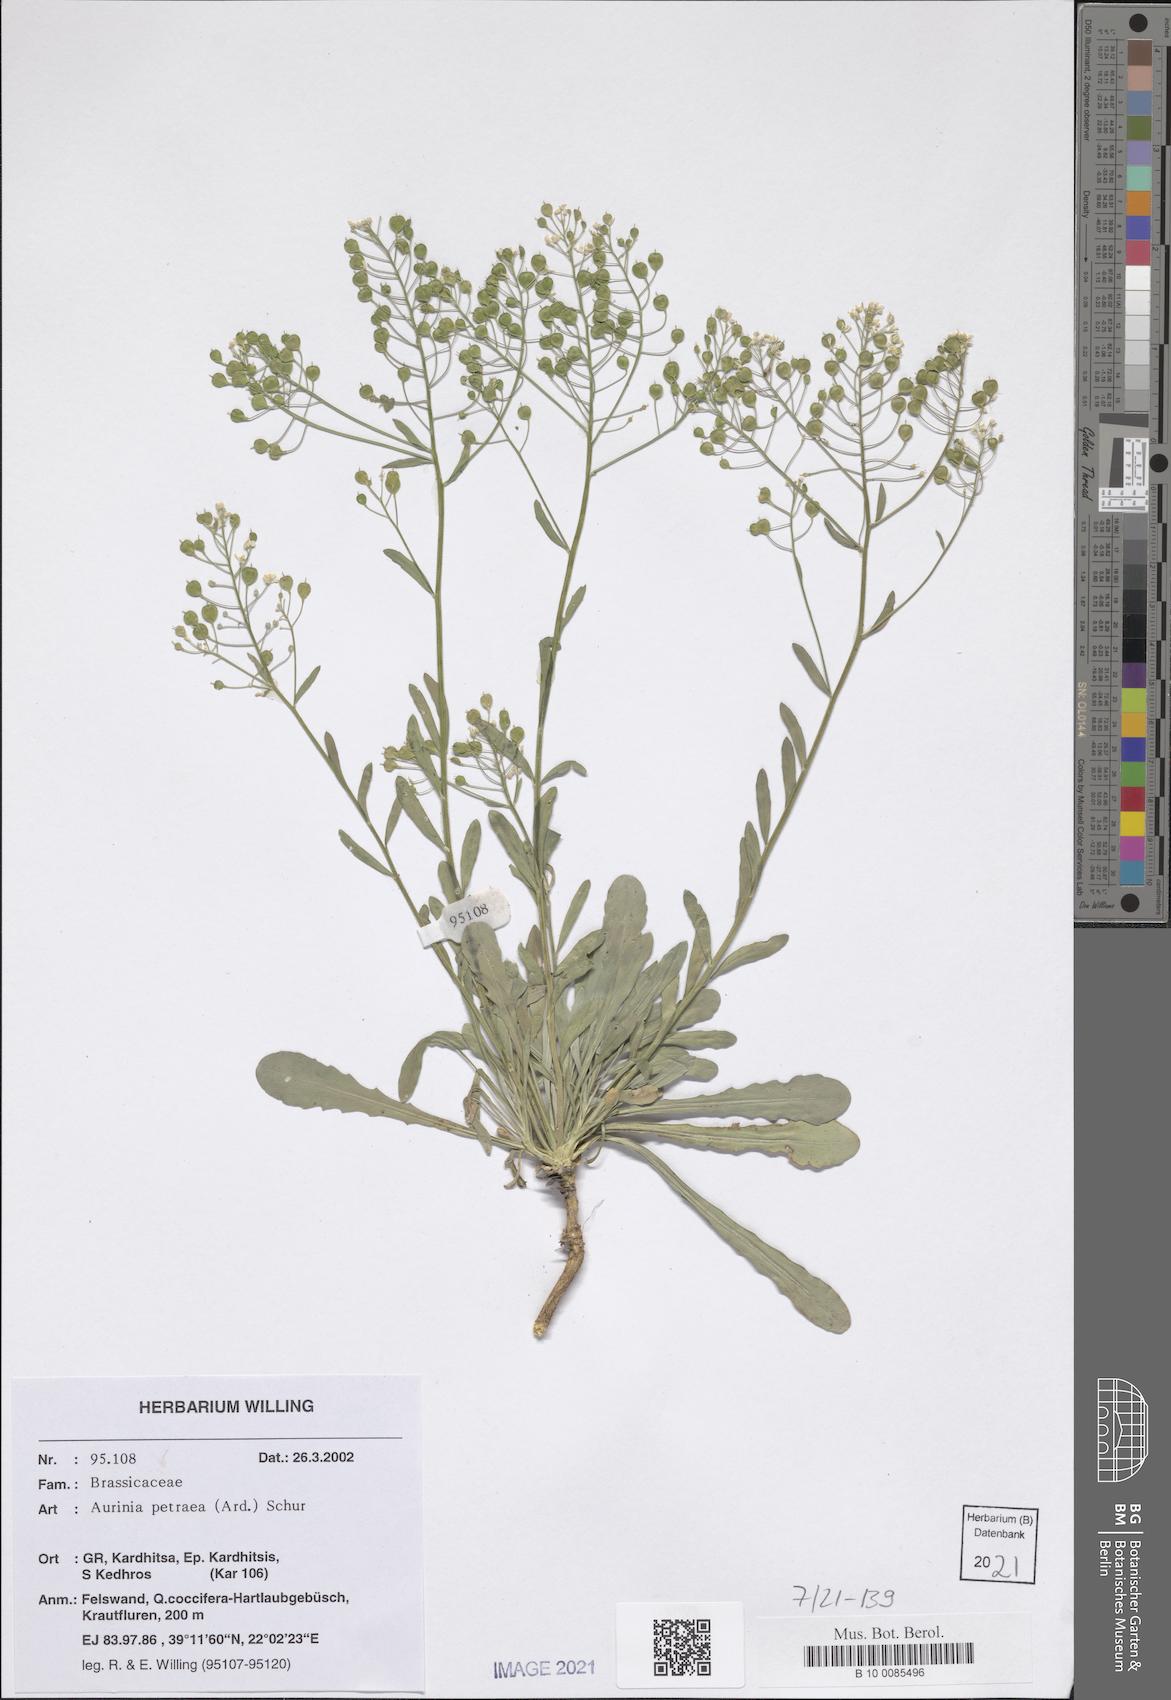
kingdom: Plantae
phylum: Tracheophyta
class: Magnoliopsida
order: Brassicales
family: Brassicaceae
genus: Aurinia
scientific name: Aurinia petraea
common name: Goldentuft
